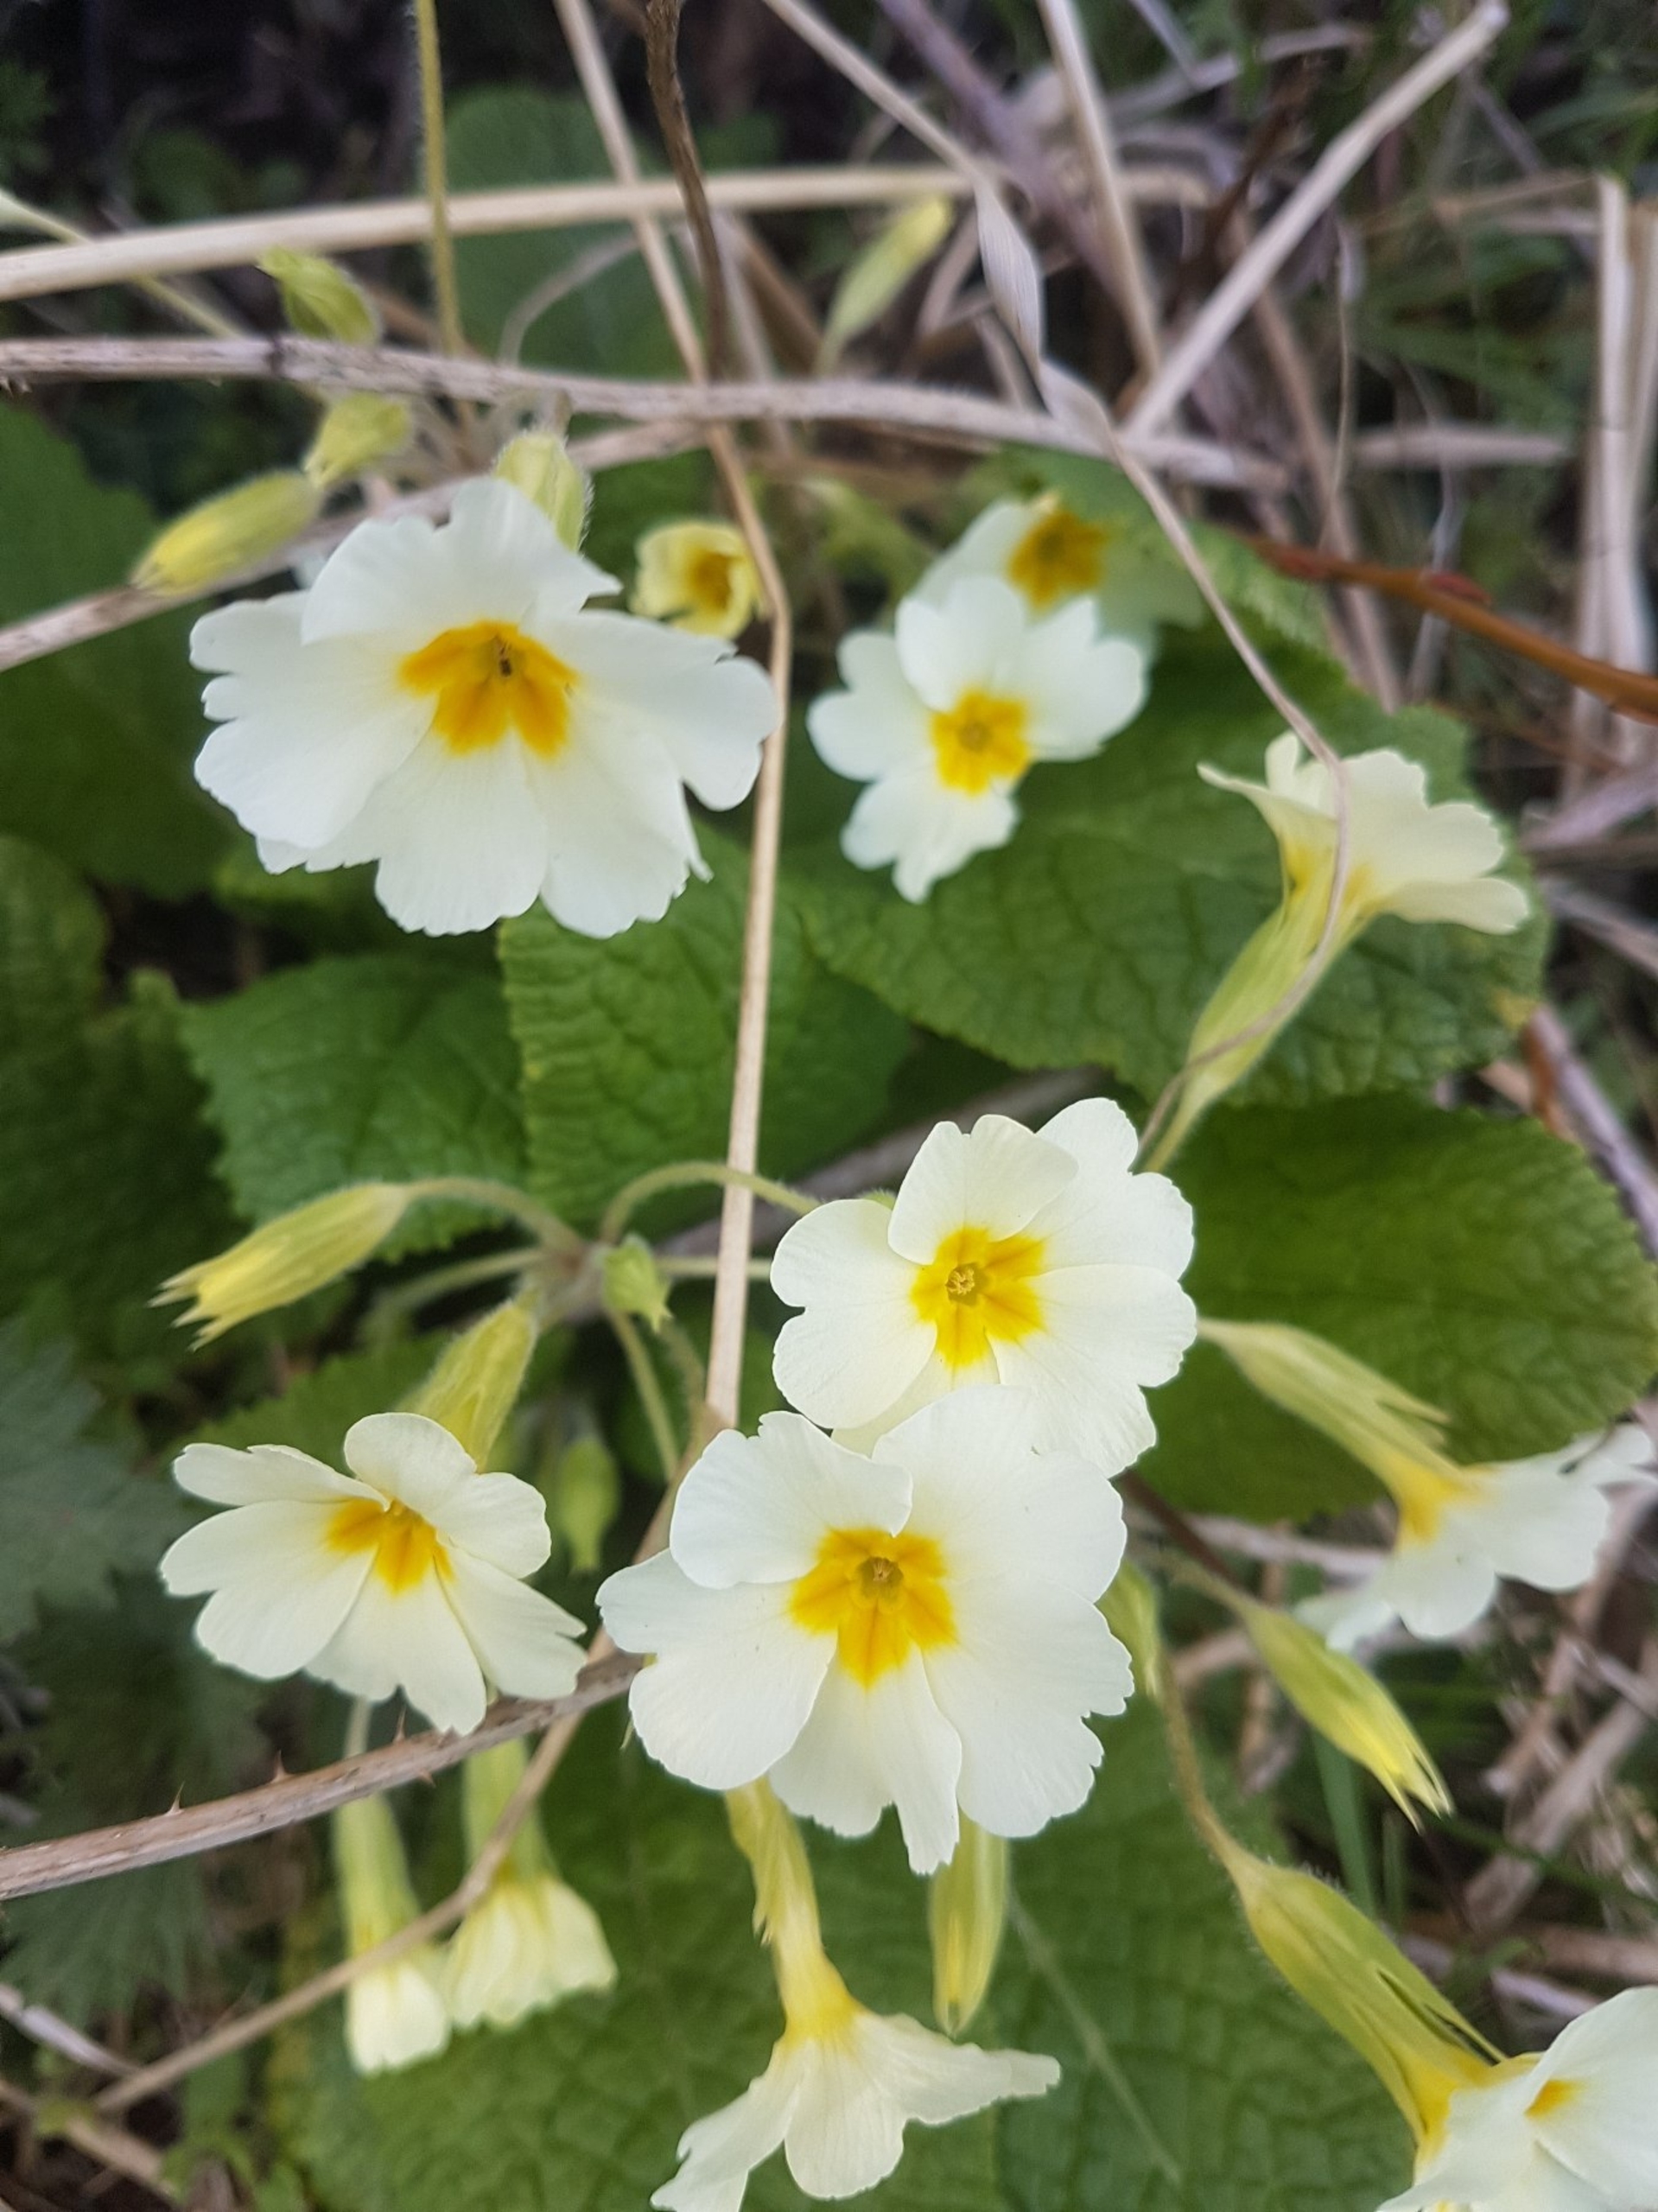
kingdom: Plantae
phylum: Tracheophyta
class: Magnoliopsida
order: Ericales
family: Primulaceae
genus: Primula
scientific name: Primula elatior
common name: Fladkravet kodriver
